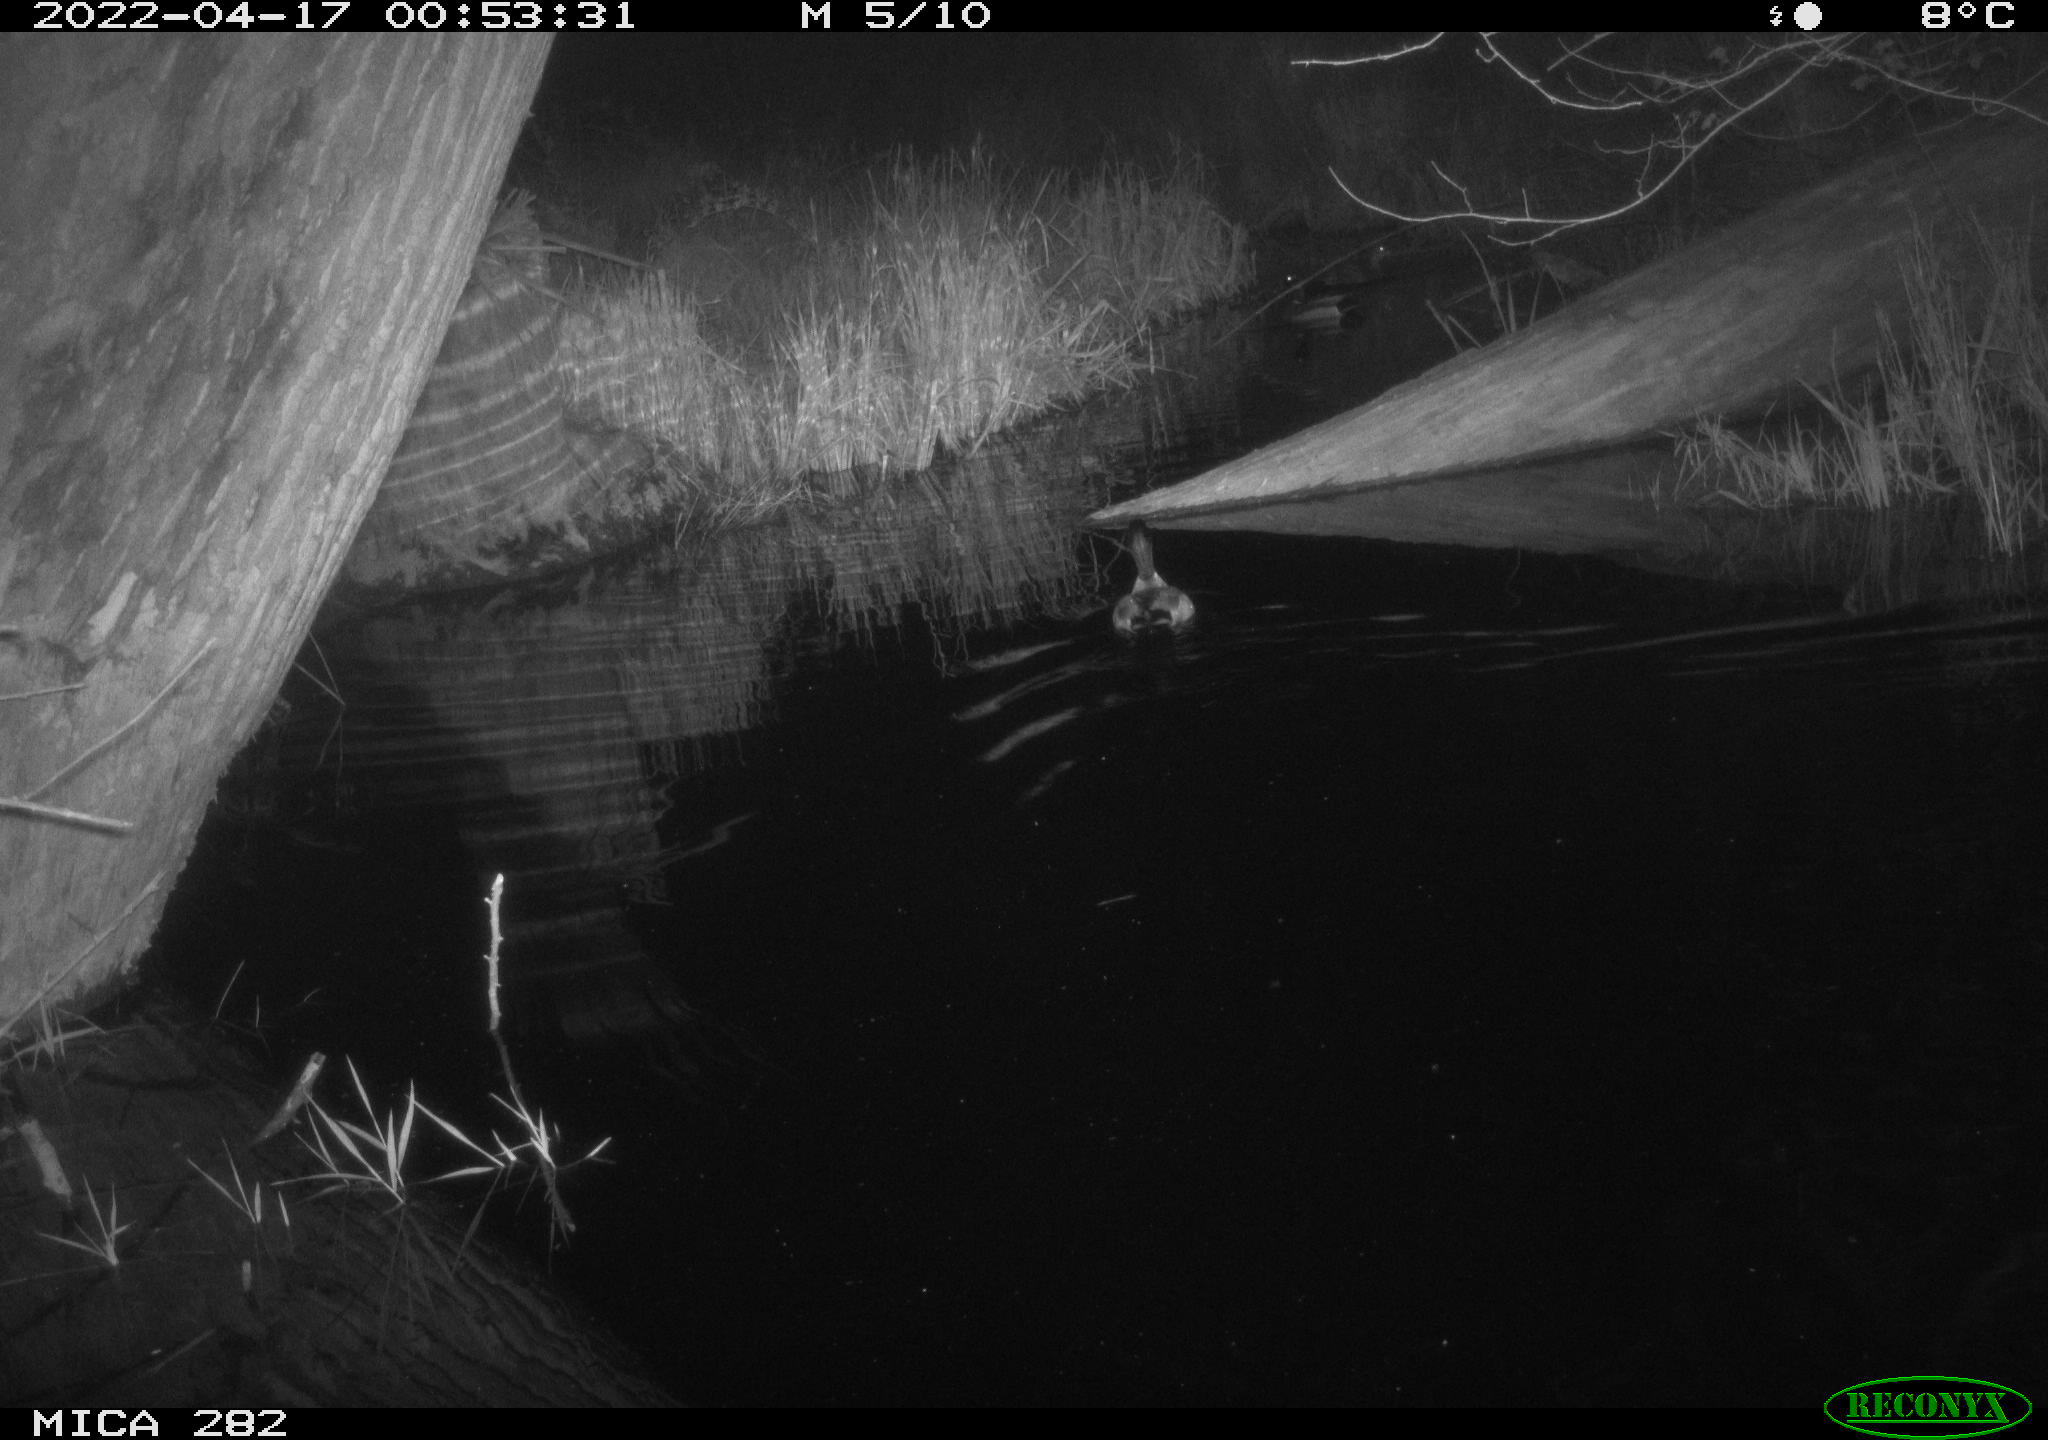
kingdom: Animalia
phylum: Chordata
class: Aves
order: Anseriformes
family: Anatidae
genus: Anas
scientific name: Anas platyrhynchos
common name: Mallard
